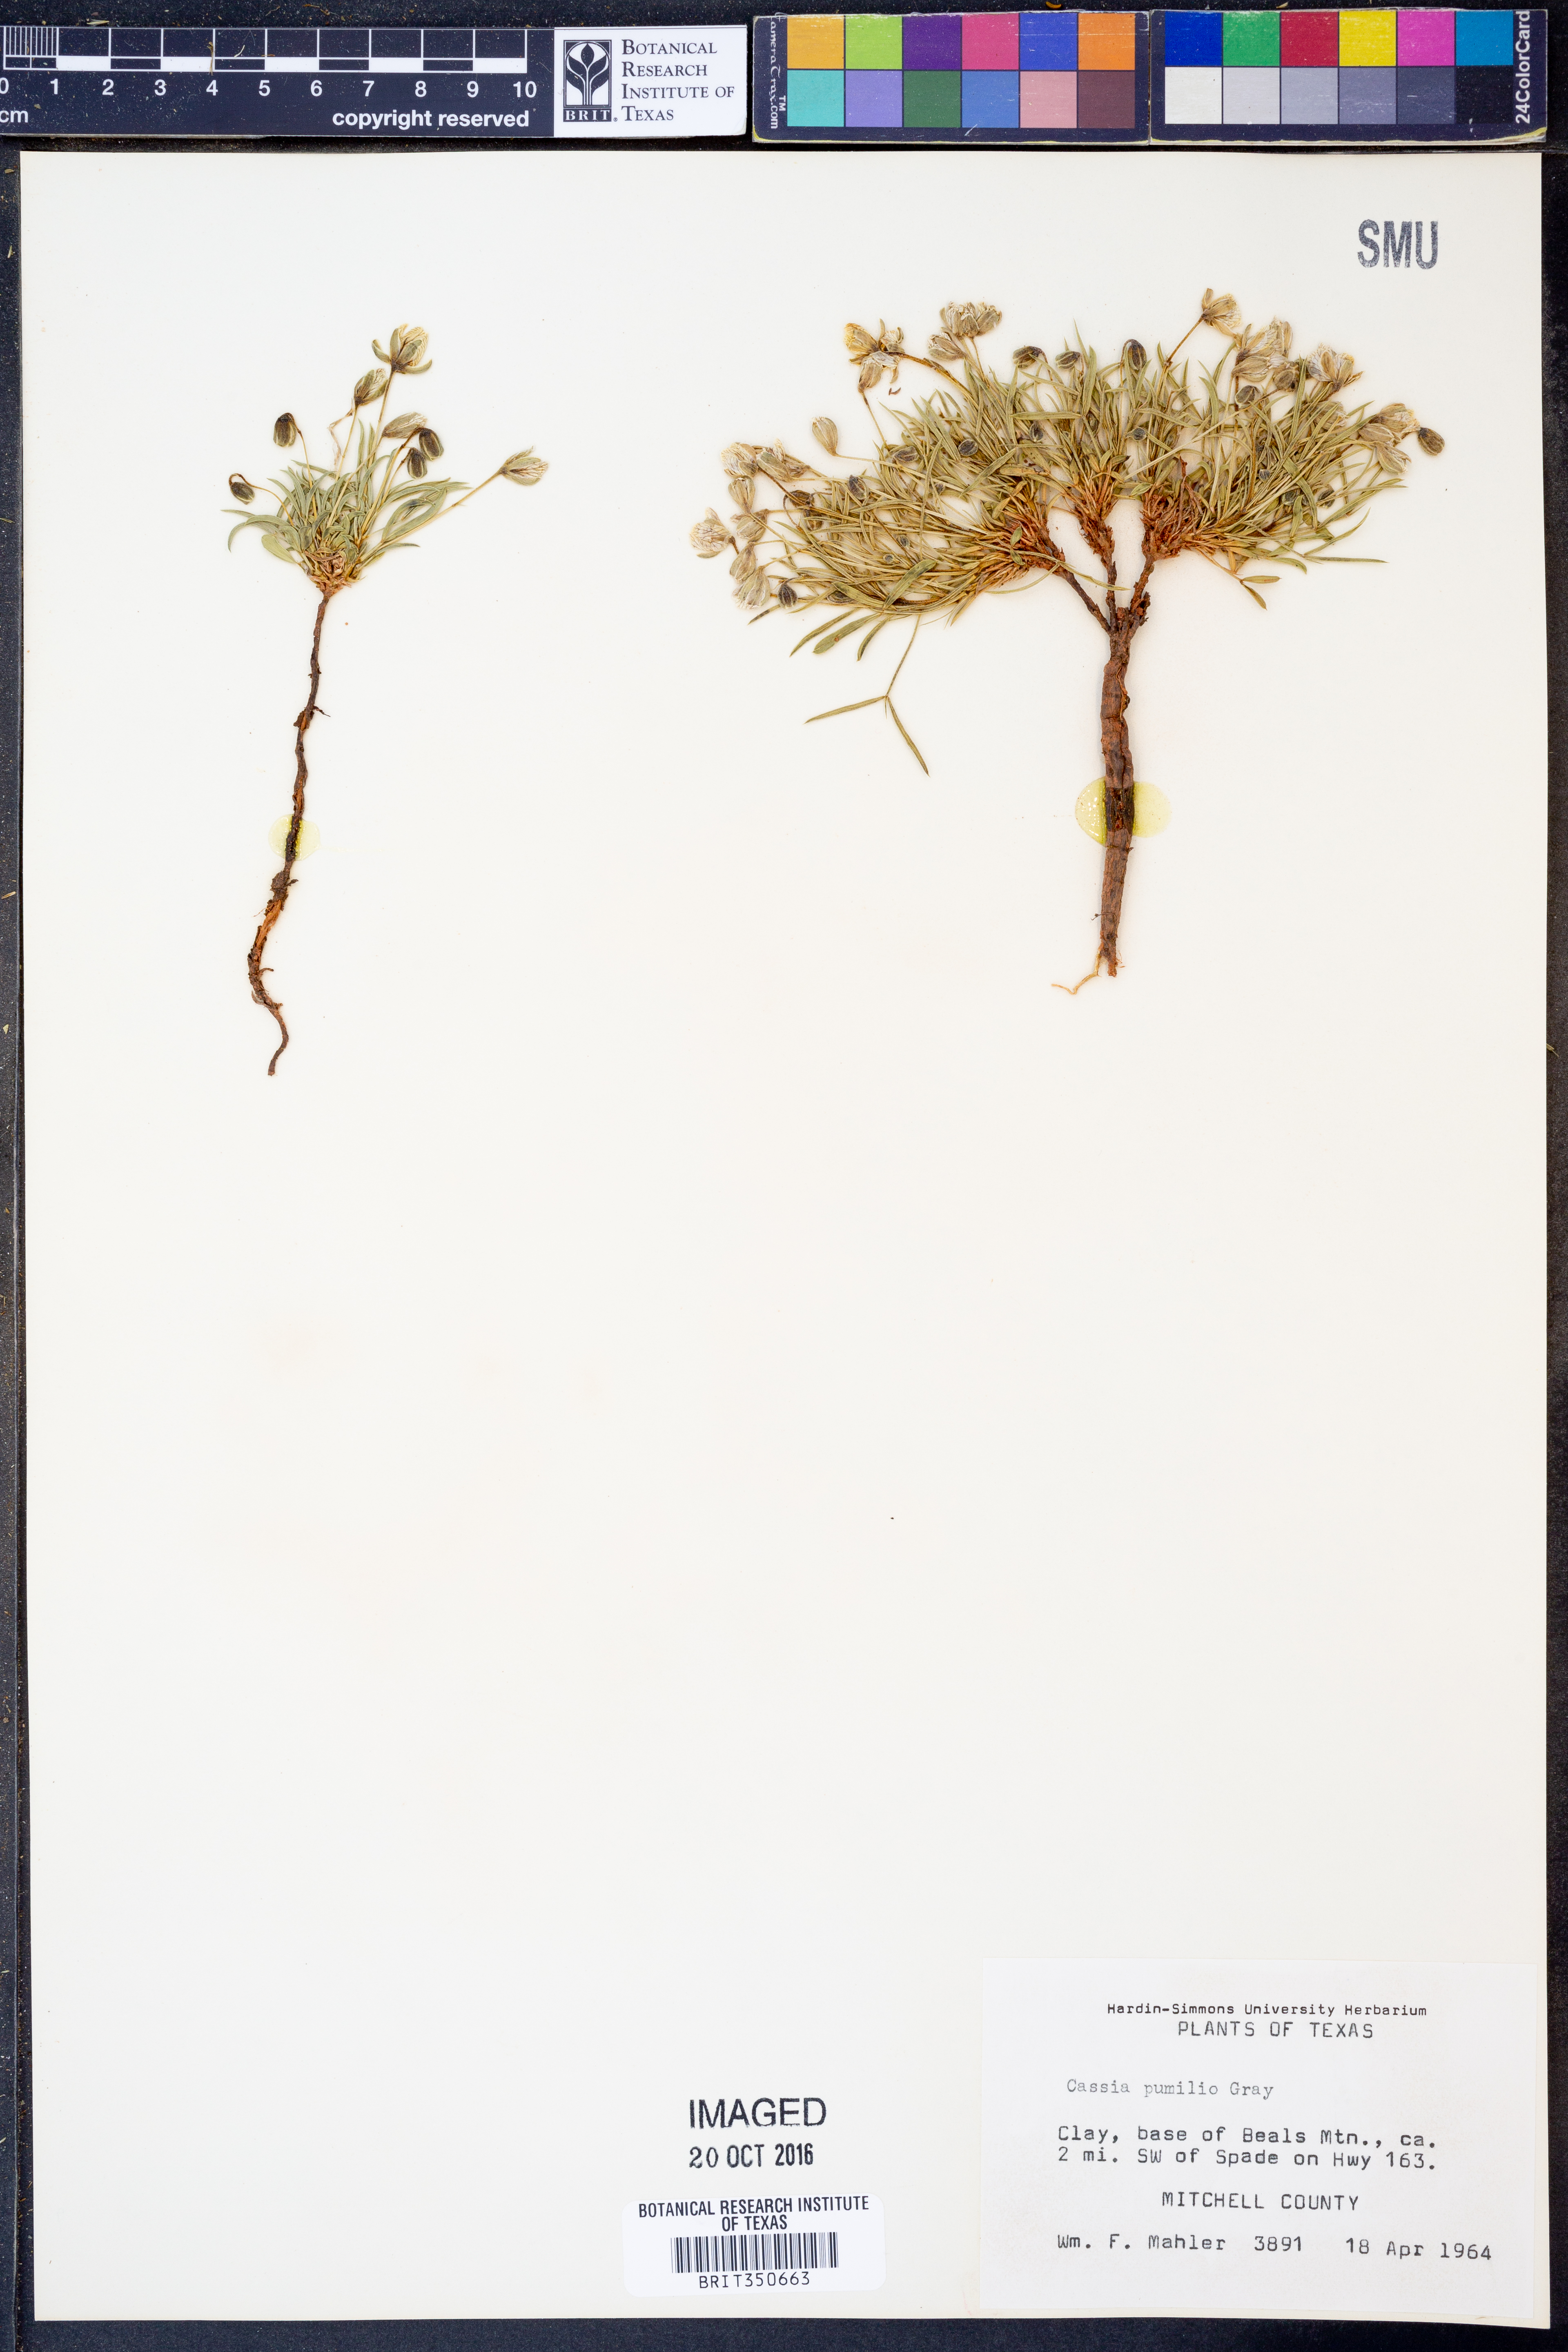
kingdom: Plantae
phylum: Tracheophyta
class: Magnoliopsida
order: Fabales
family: Fabaceae
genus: Senna
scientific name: Senna pumilio
